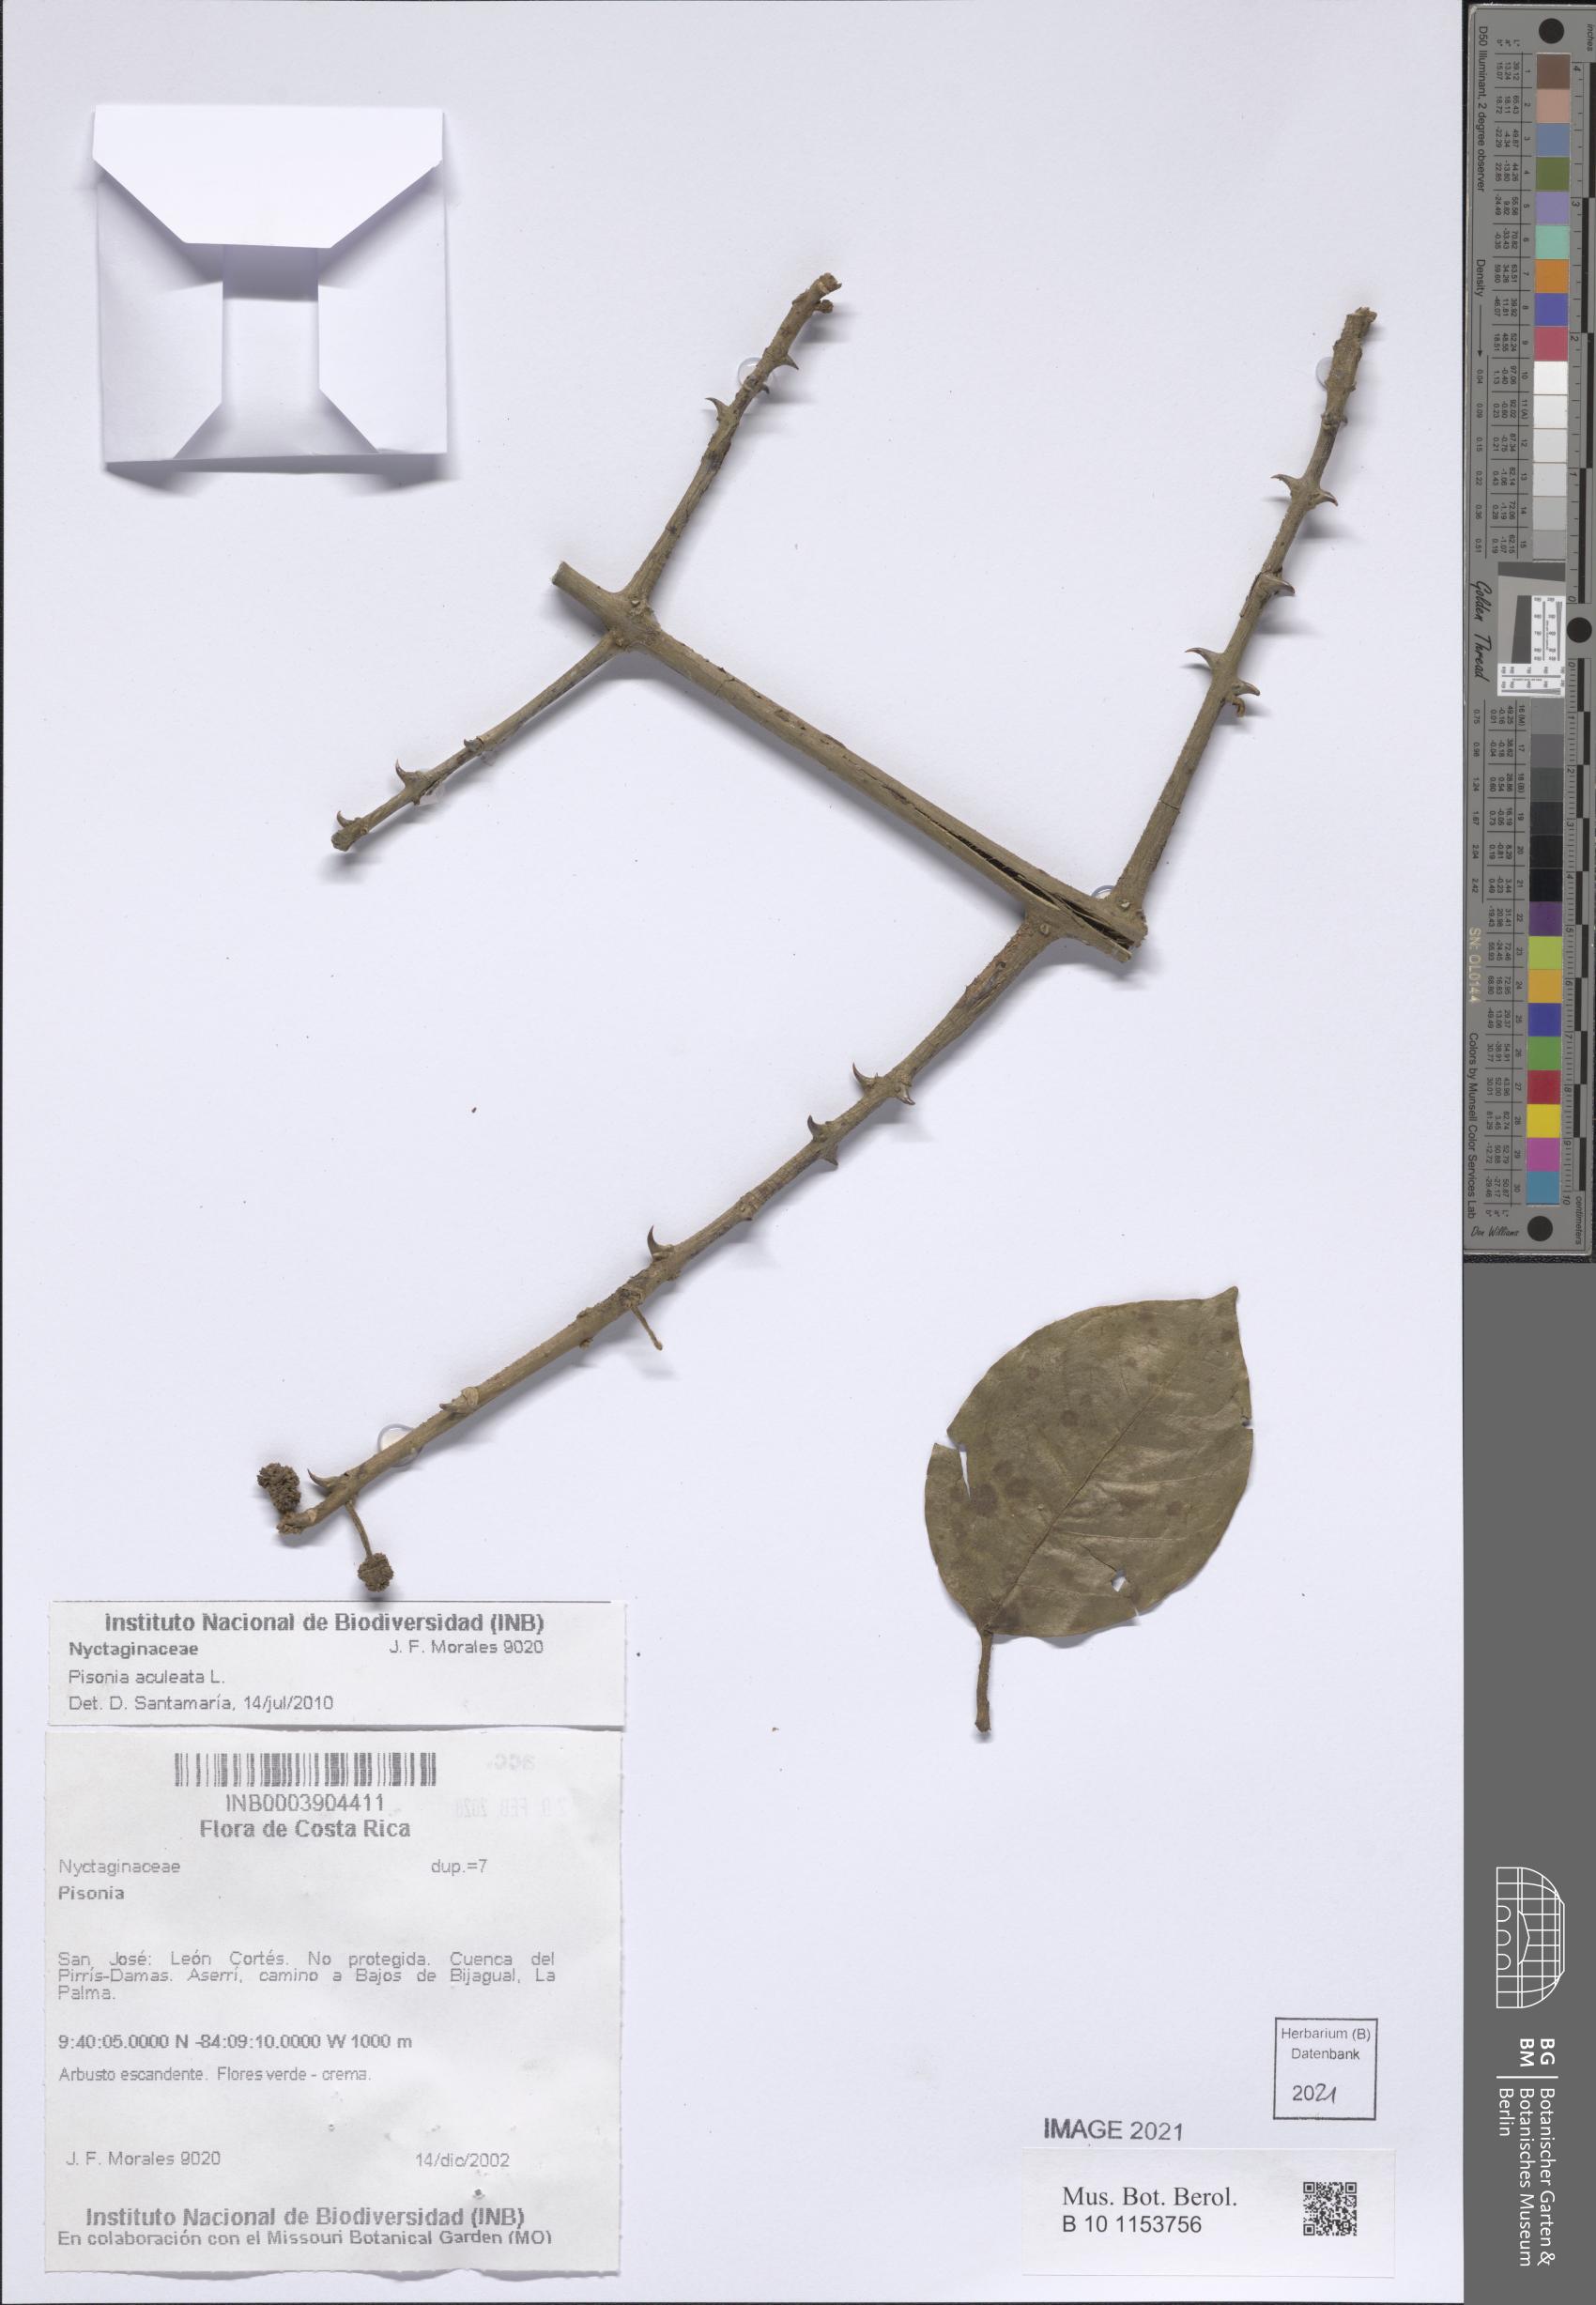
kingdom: Plantae
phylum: Tracheophyta
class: Magnoliopsida
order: Caryophyllales
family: Nyctaginaceae
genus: Pisonia
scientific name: Pisonia aculeata
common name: Cockspur vine
